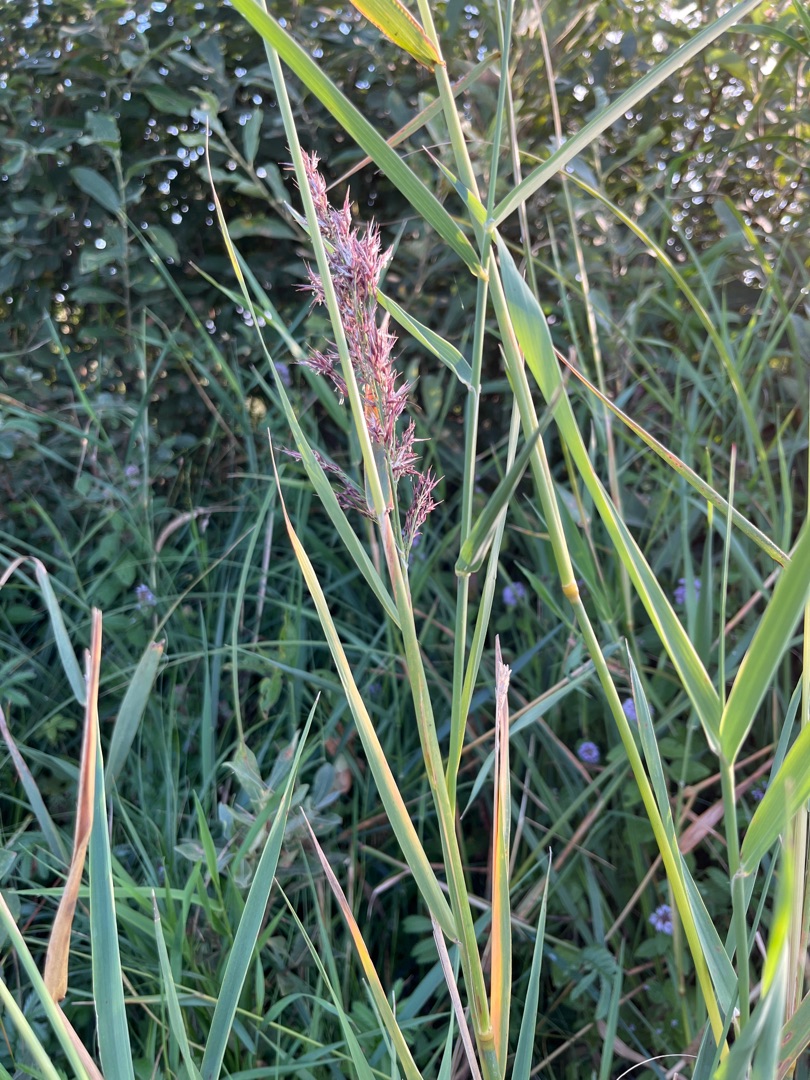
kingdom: Plantae
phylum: Tracheophyta
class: Liliopsida
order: Poales
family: Poaceae
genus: Phragmites
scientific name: Phragmites australis
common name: Tagrør
